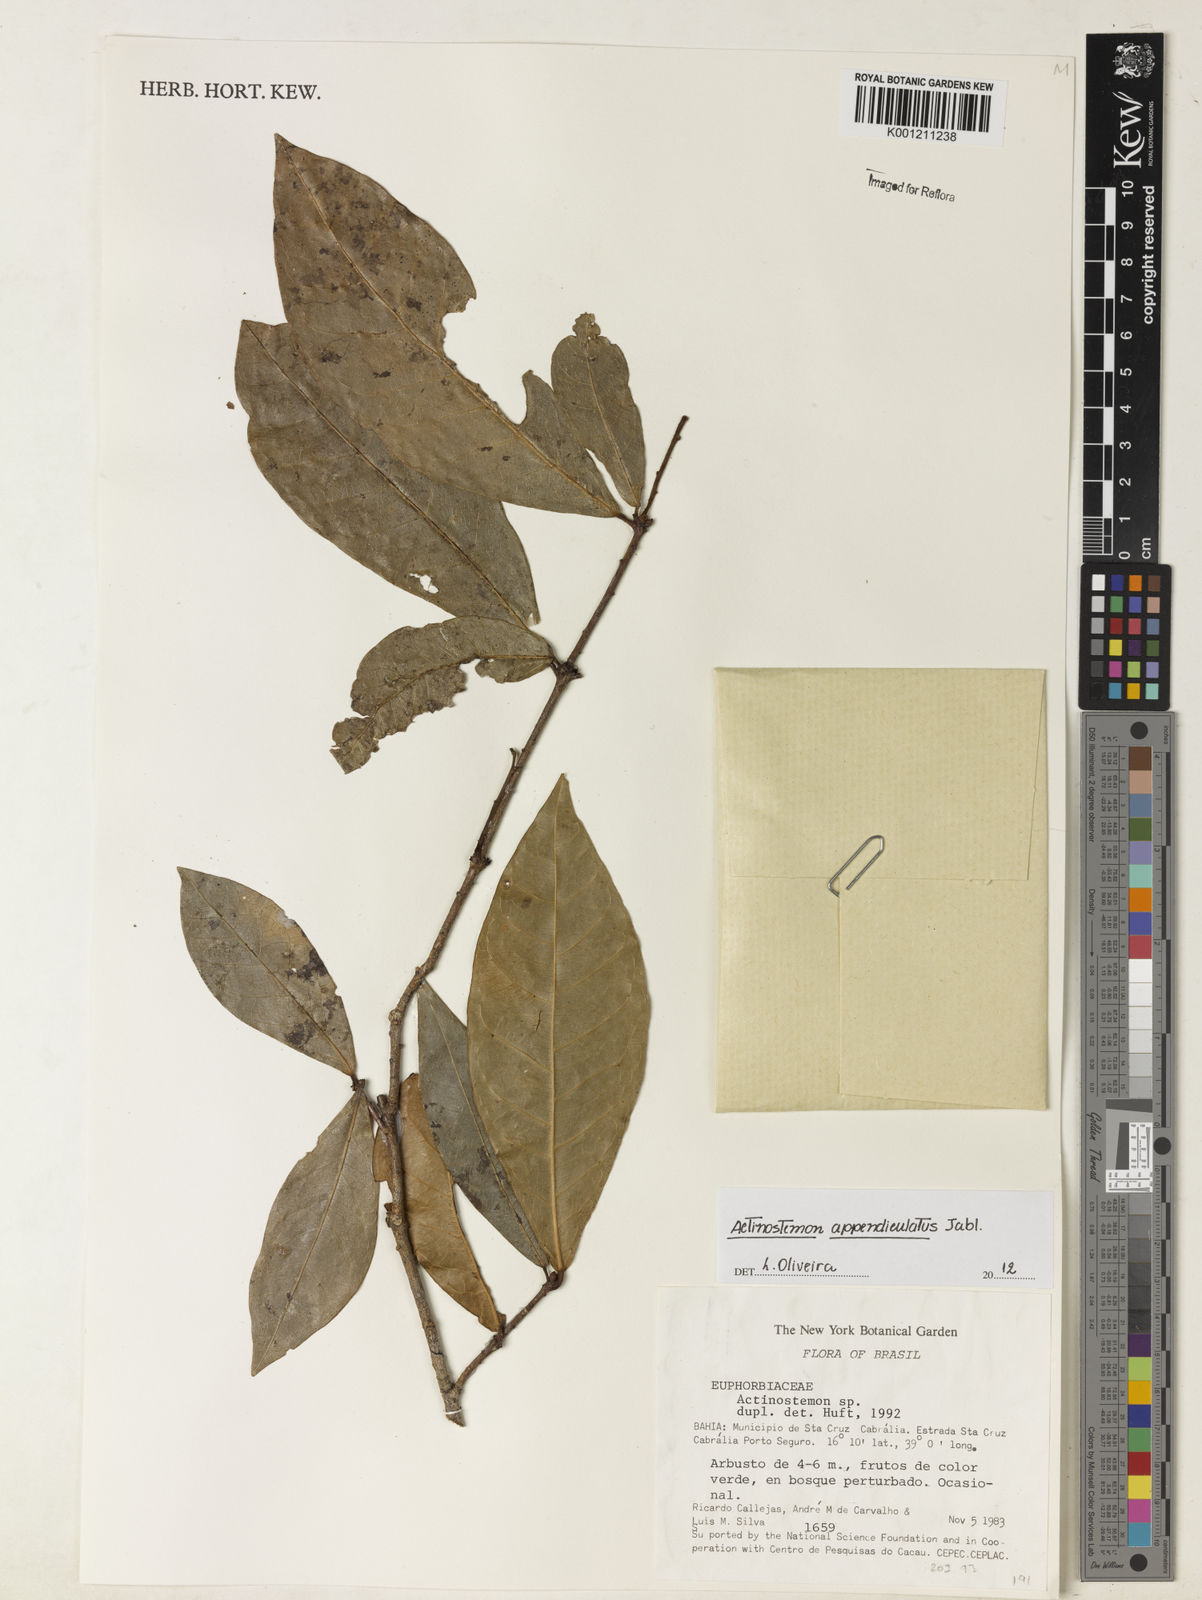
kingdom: Plantae
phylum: Tracheophyta
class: Magnoliopsida
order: Malpighiales
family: Euphorbiaceae
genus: Actinostemon
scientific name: Actinostemon lasiocarpus
